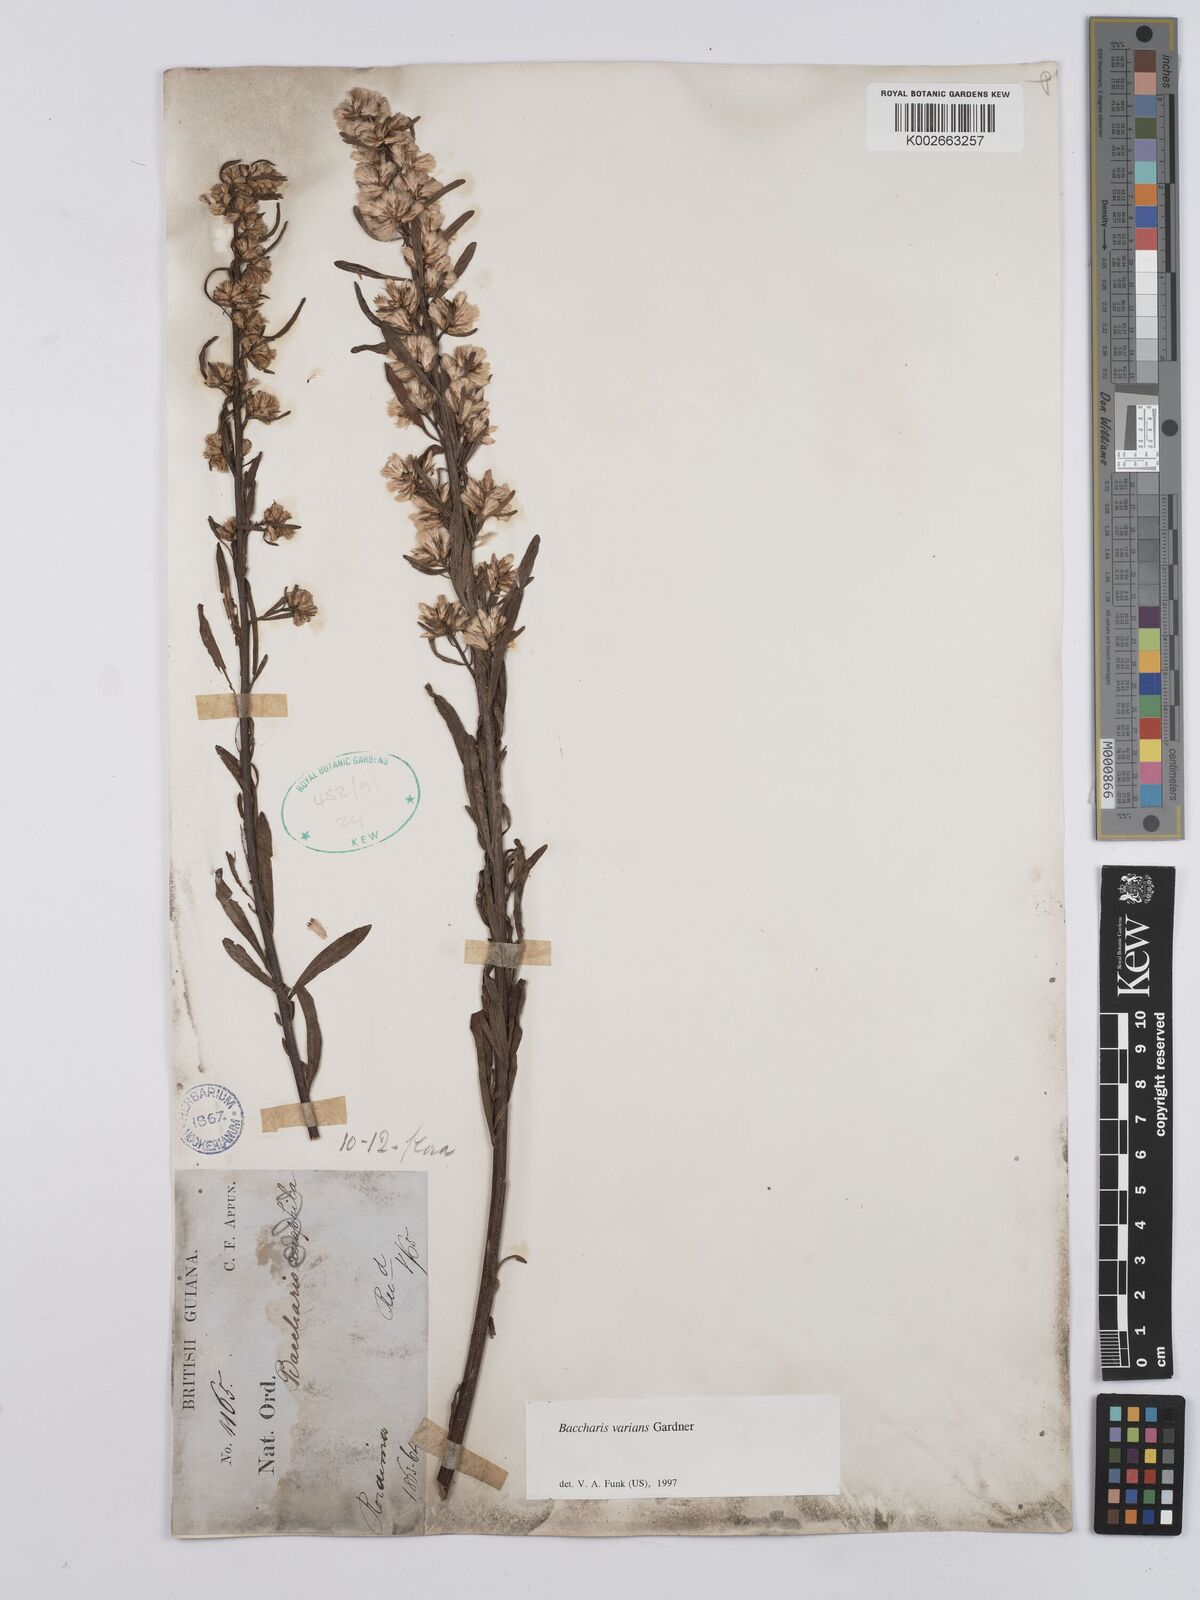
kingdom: Plantae
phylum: Tracheophyta
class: Magnoliopsida
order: Asterales
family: Asteraceae
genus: Baccharis
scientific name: Baccharis varians
